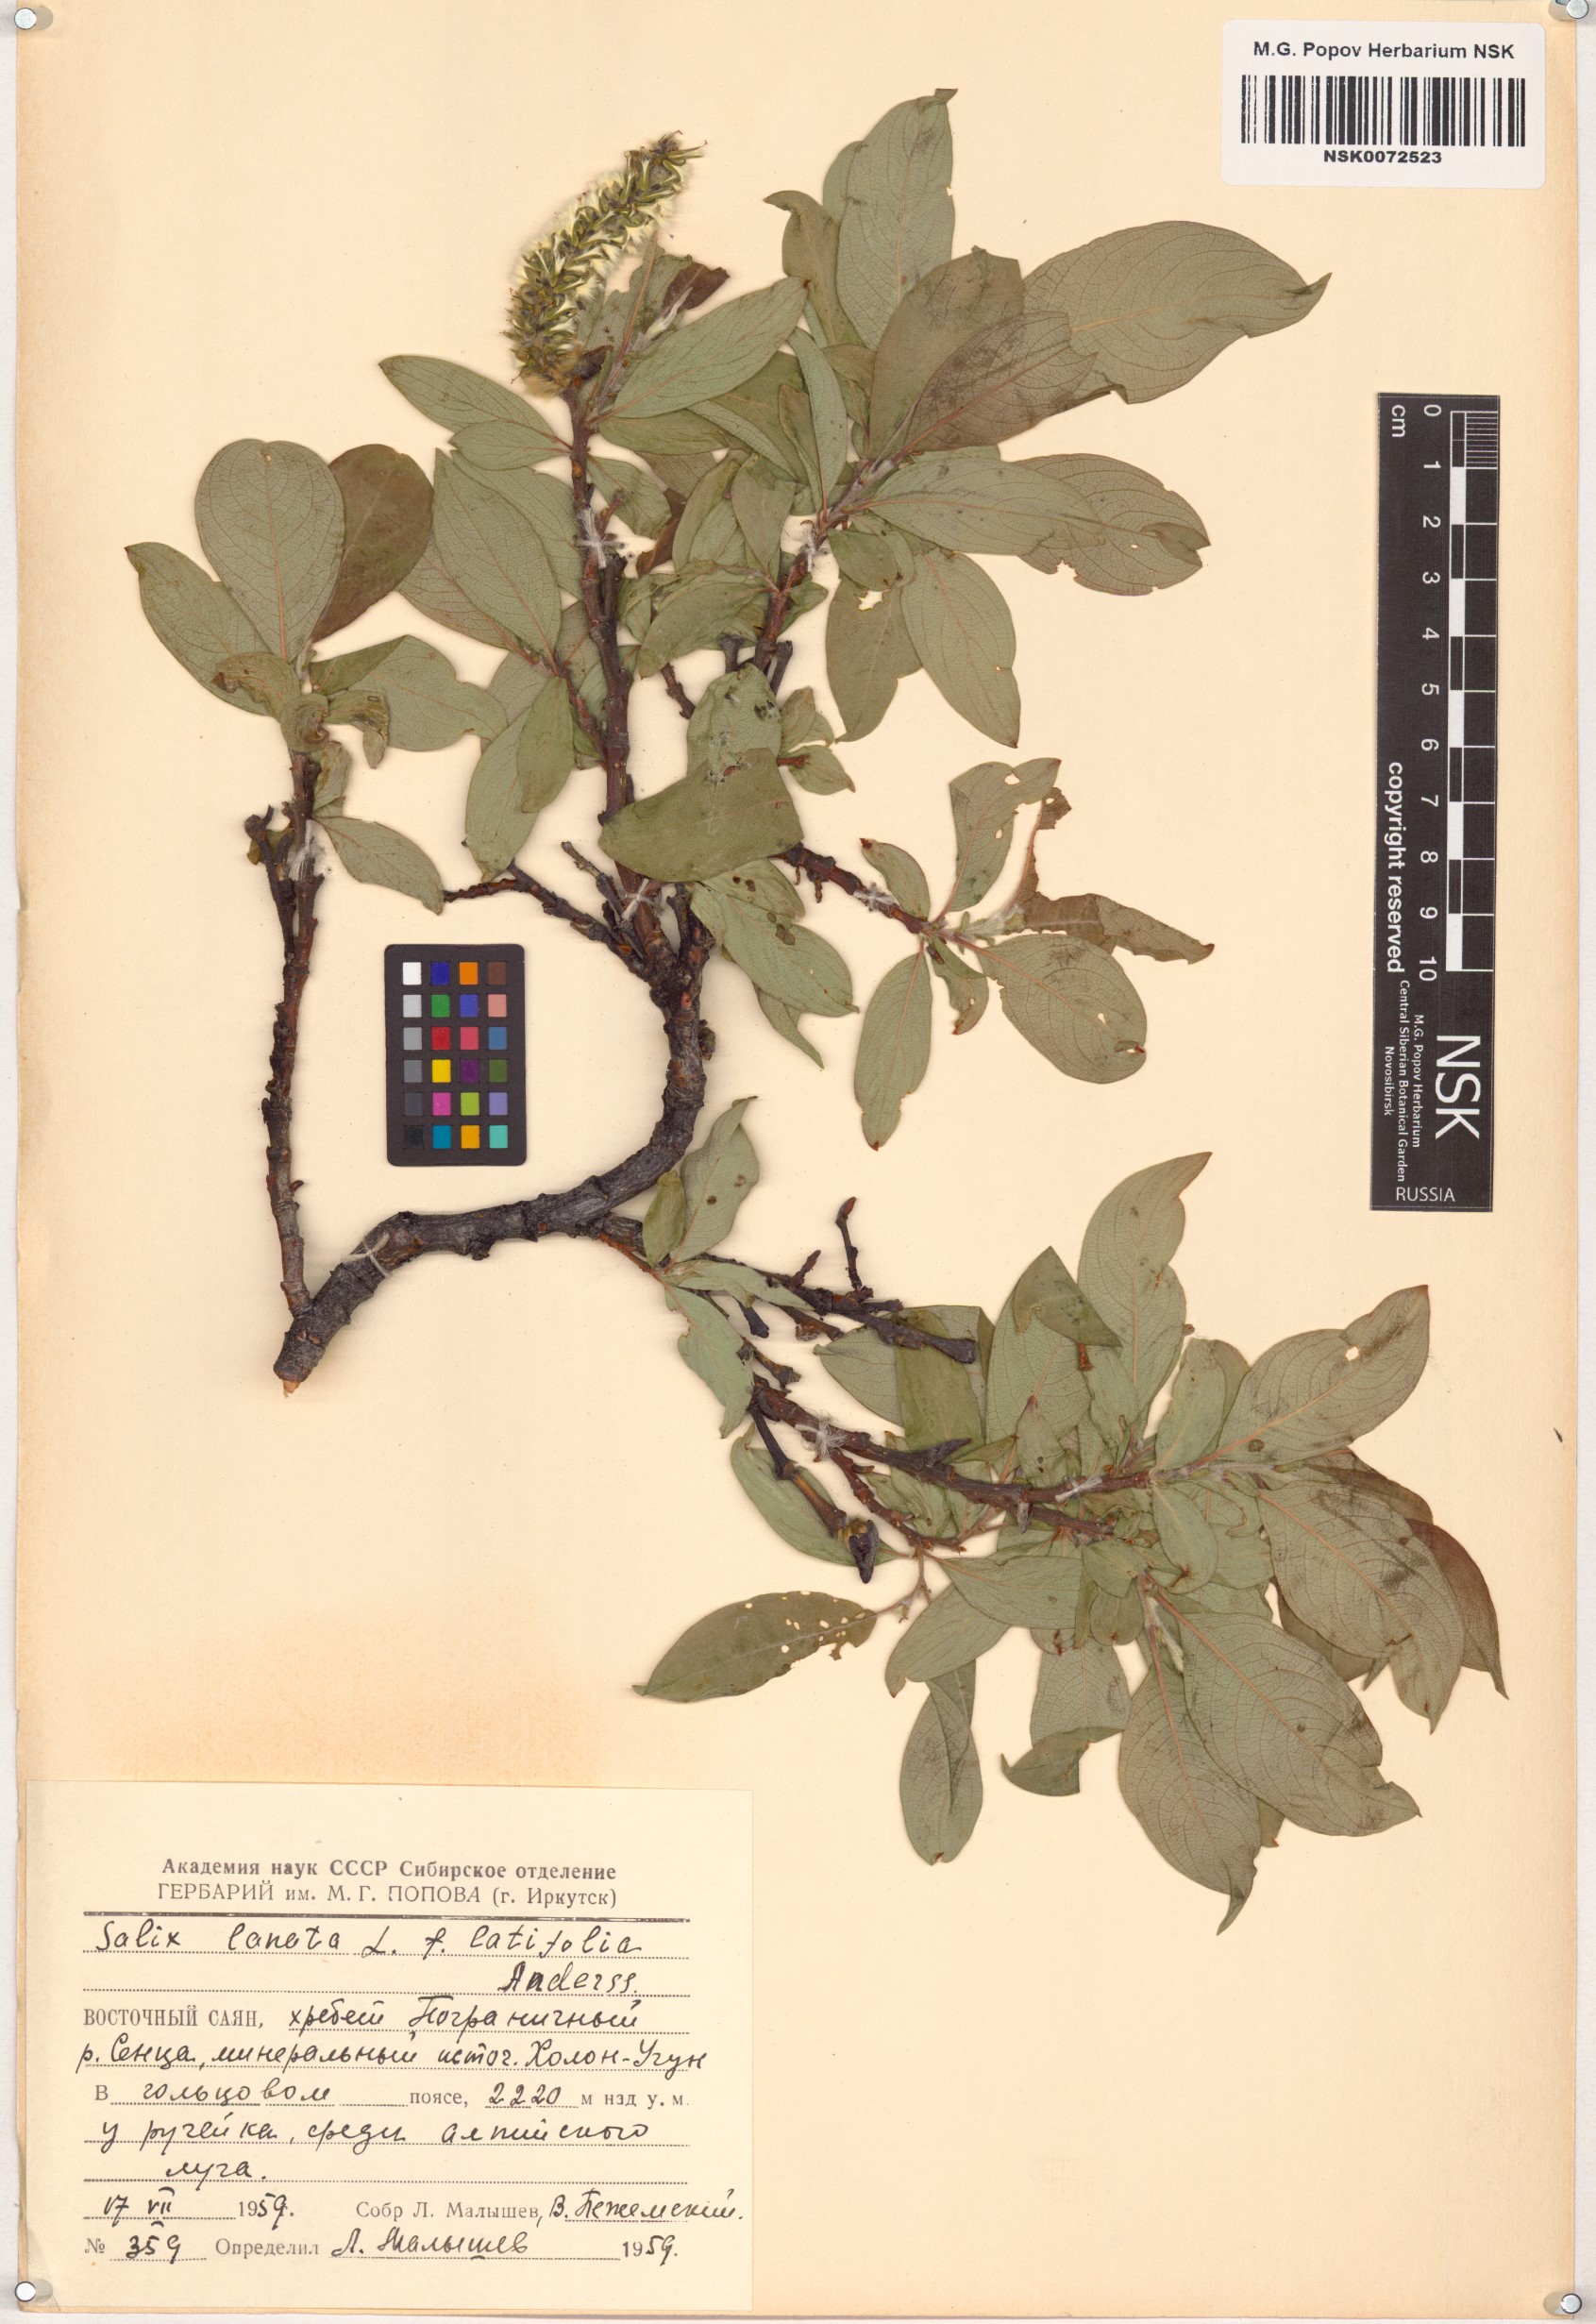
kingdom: Plantae
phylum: Tracheophyta
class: Magnoliopsida
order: Malpighiales
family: Salicaceae
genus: Salix
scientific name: Salix lanata
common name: Woolly willow
